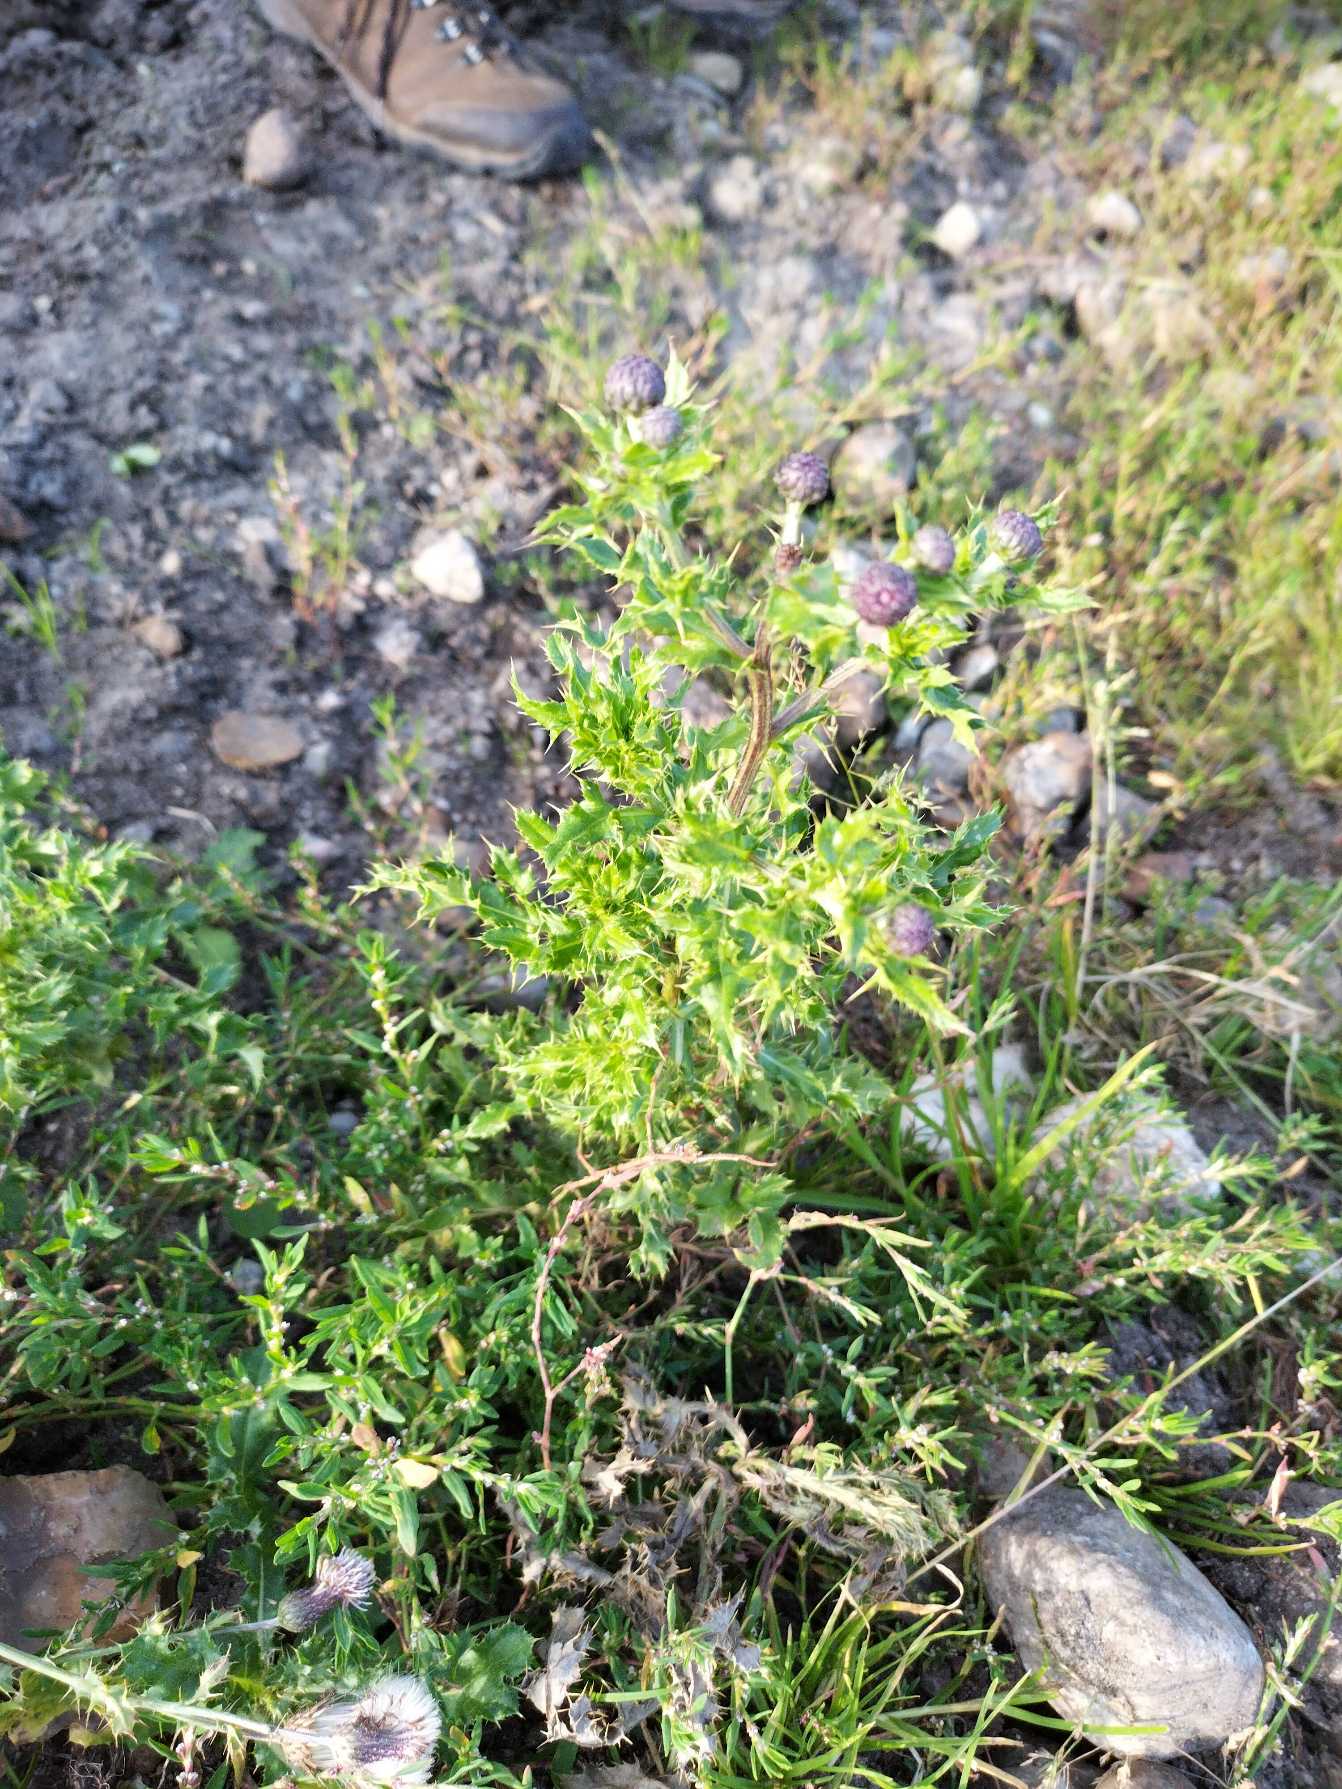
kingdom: Plantae
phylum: Tracheophyta
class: Magnoliopsida
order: Asterales
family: Asteraceae
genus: Cirsium
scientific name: Cirsium arvense
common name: Ager-tidsel
